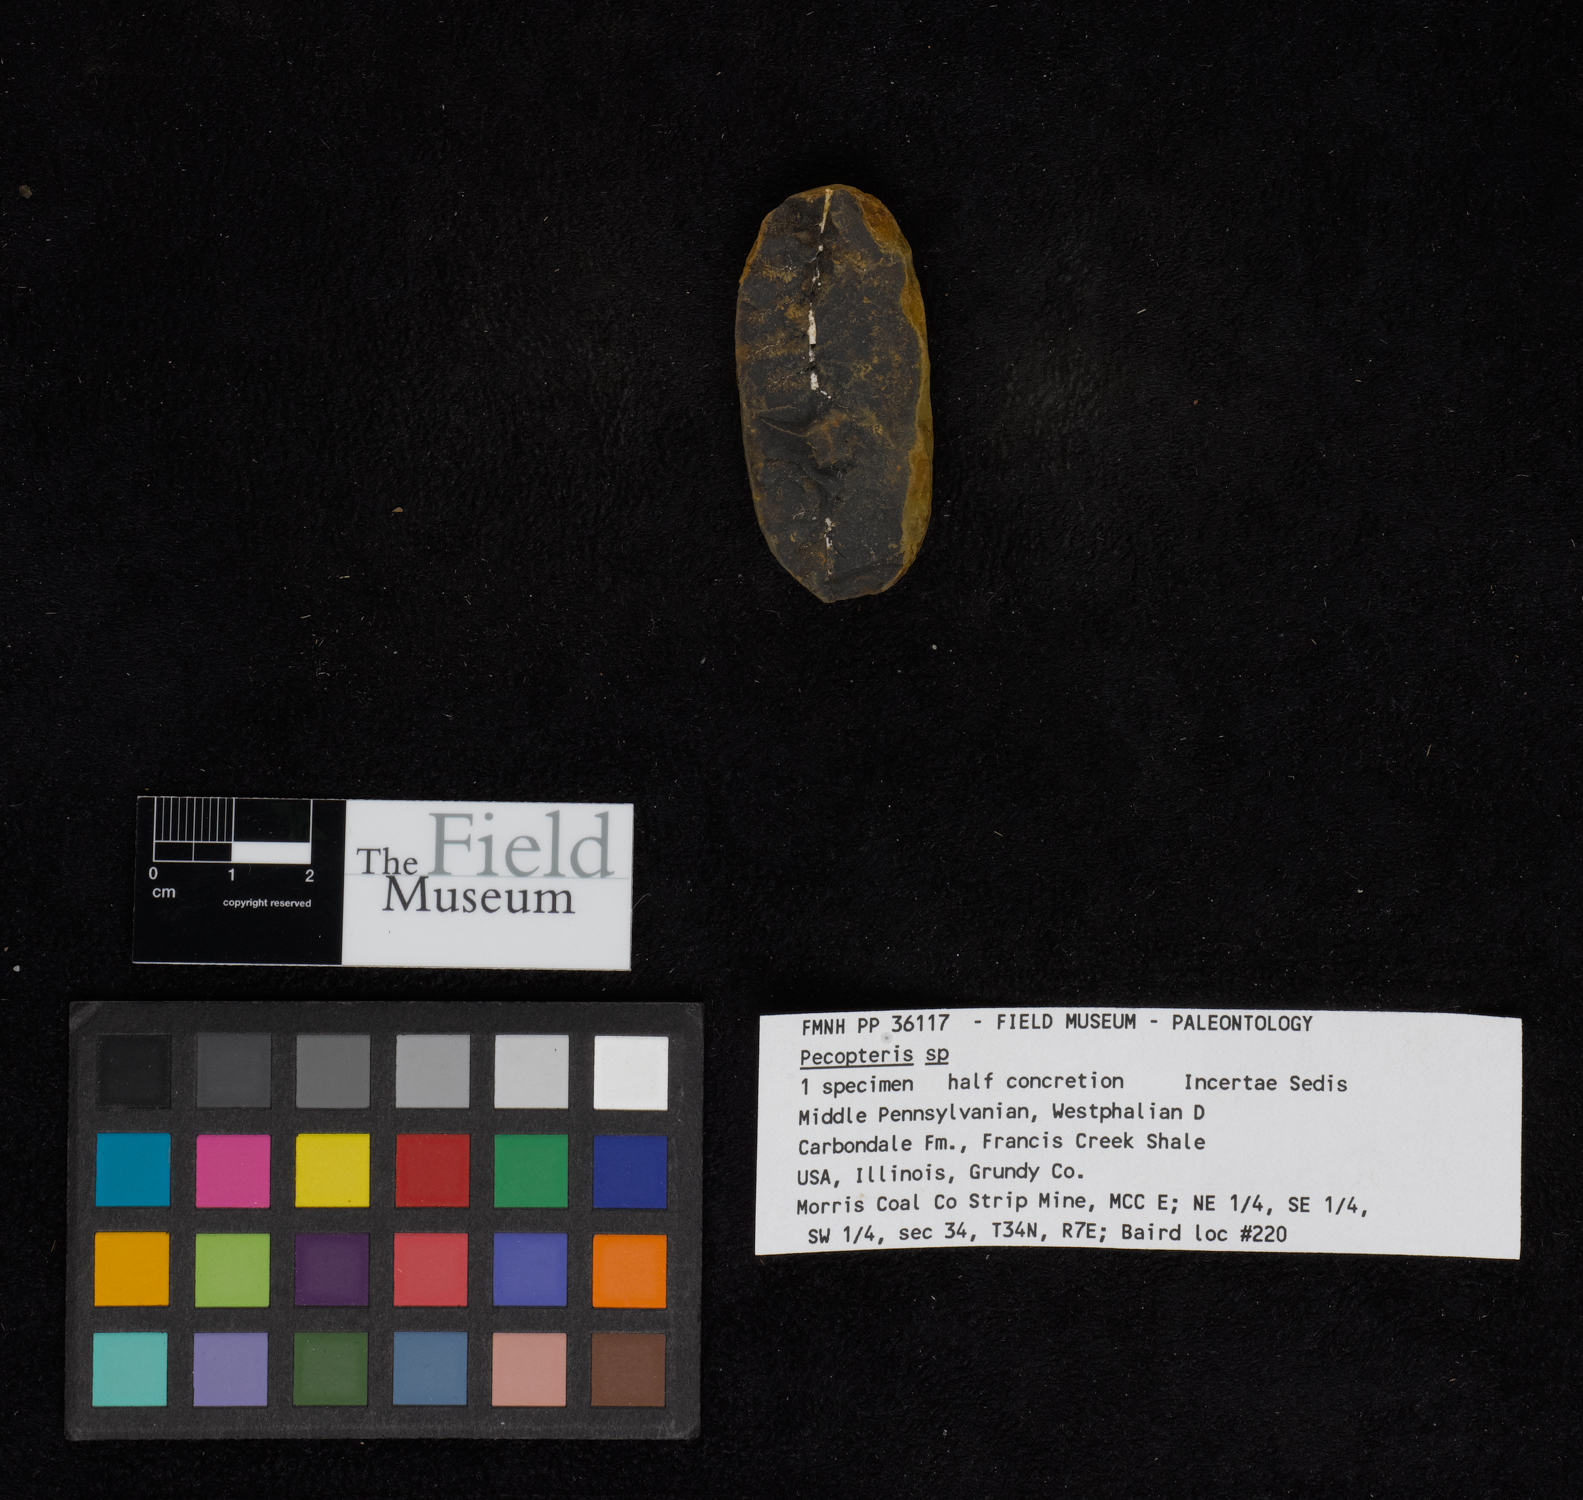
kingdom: Plantae
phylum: Tracheophyta
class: Polypodiopsida
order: Marattiales
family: Asterothecaceae
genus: Pecopteris
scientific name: Pecopteris
